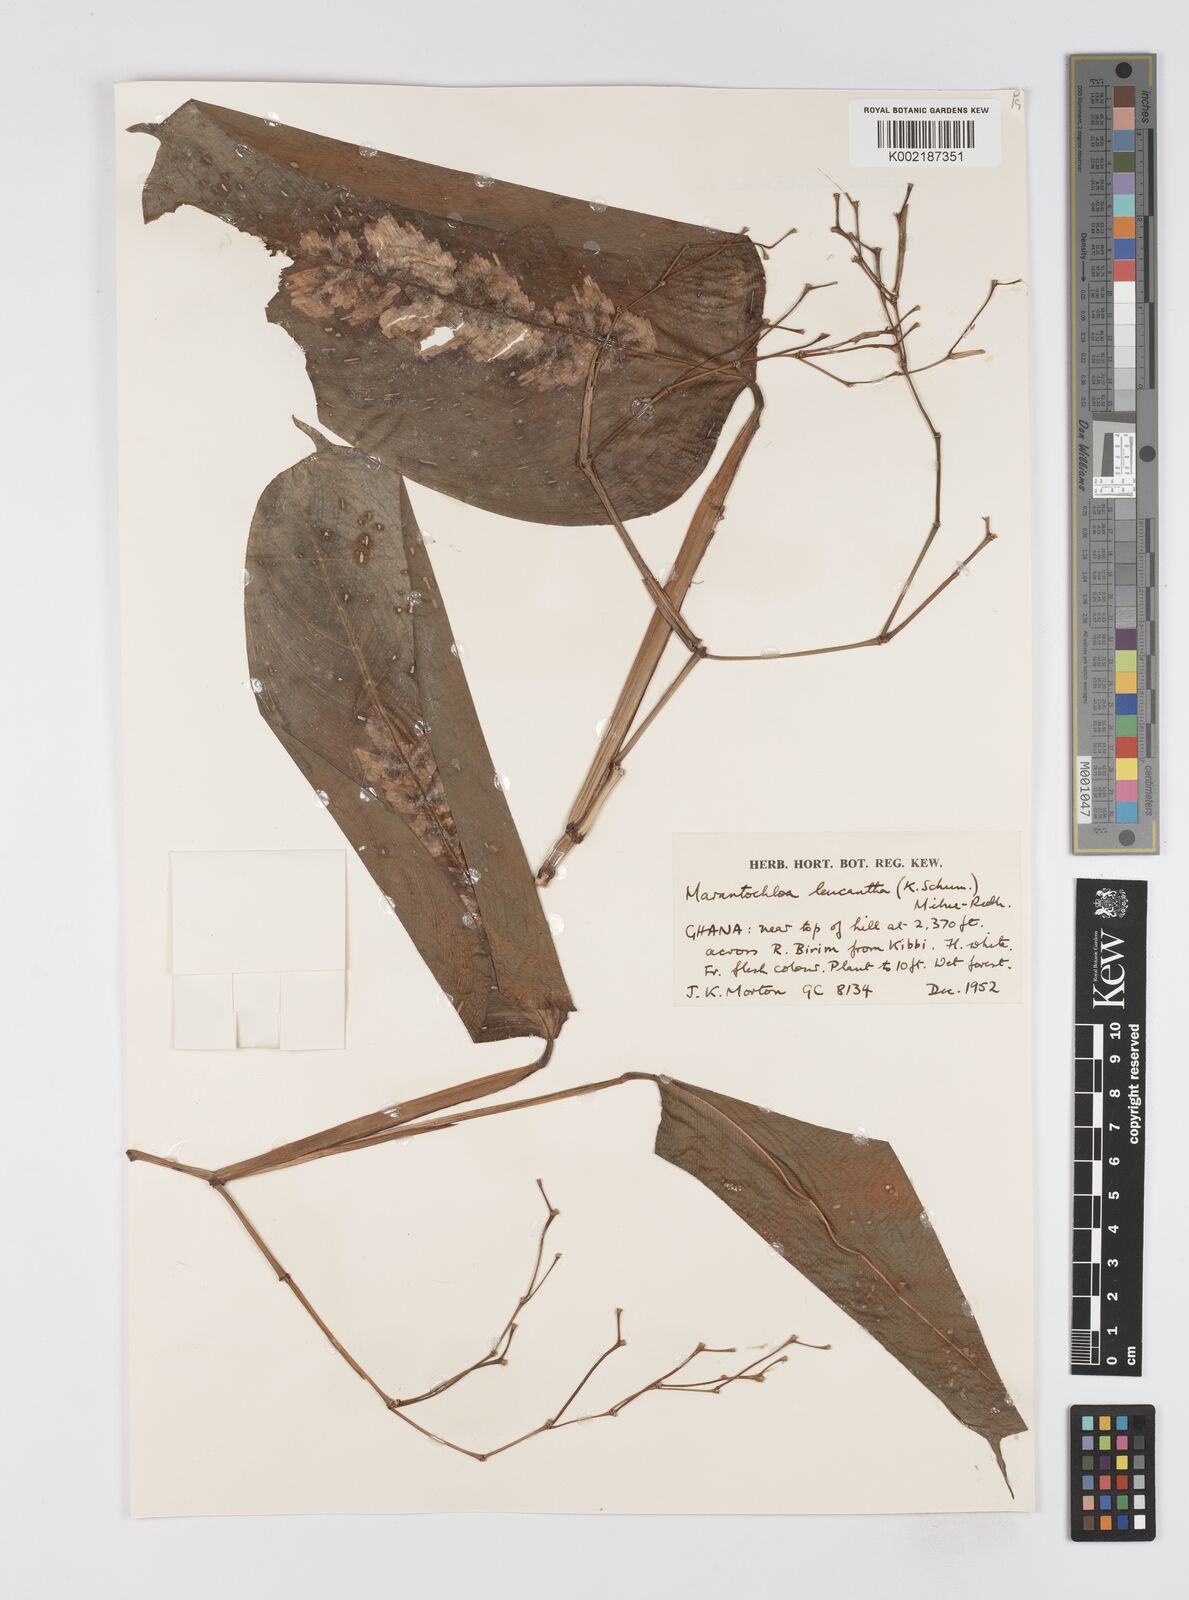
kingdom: Plantae
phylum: Tracheophyta
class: Liliopsida
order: Zingiberales
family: Marantaceae
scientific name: Marantaceae
